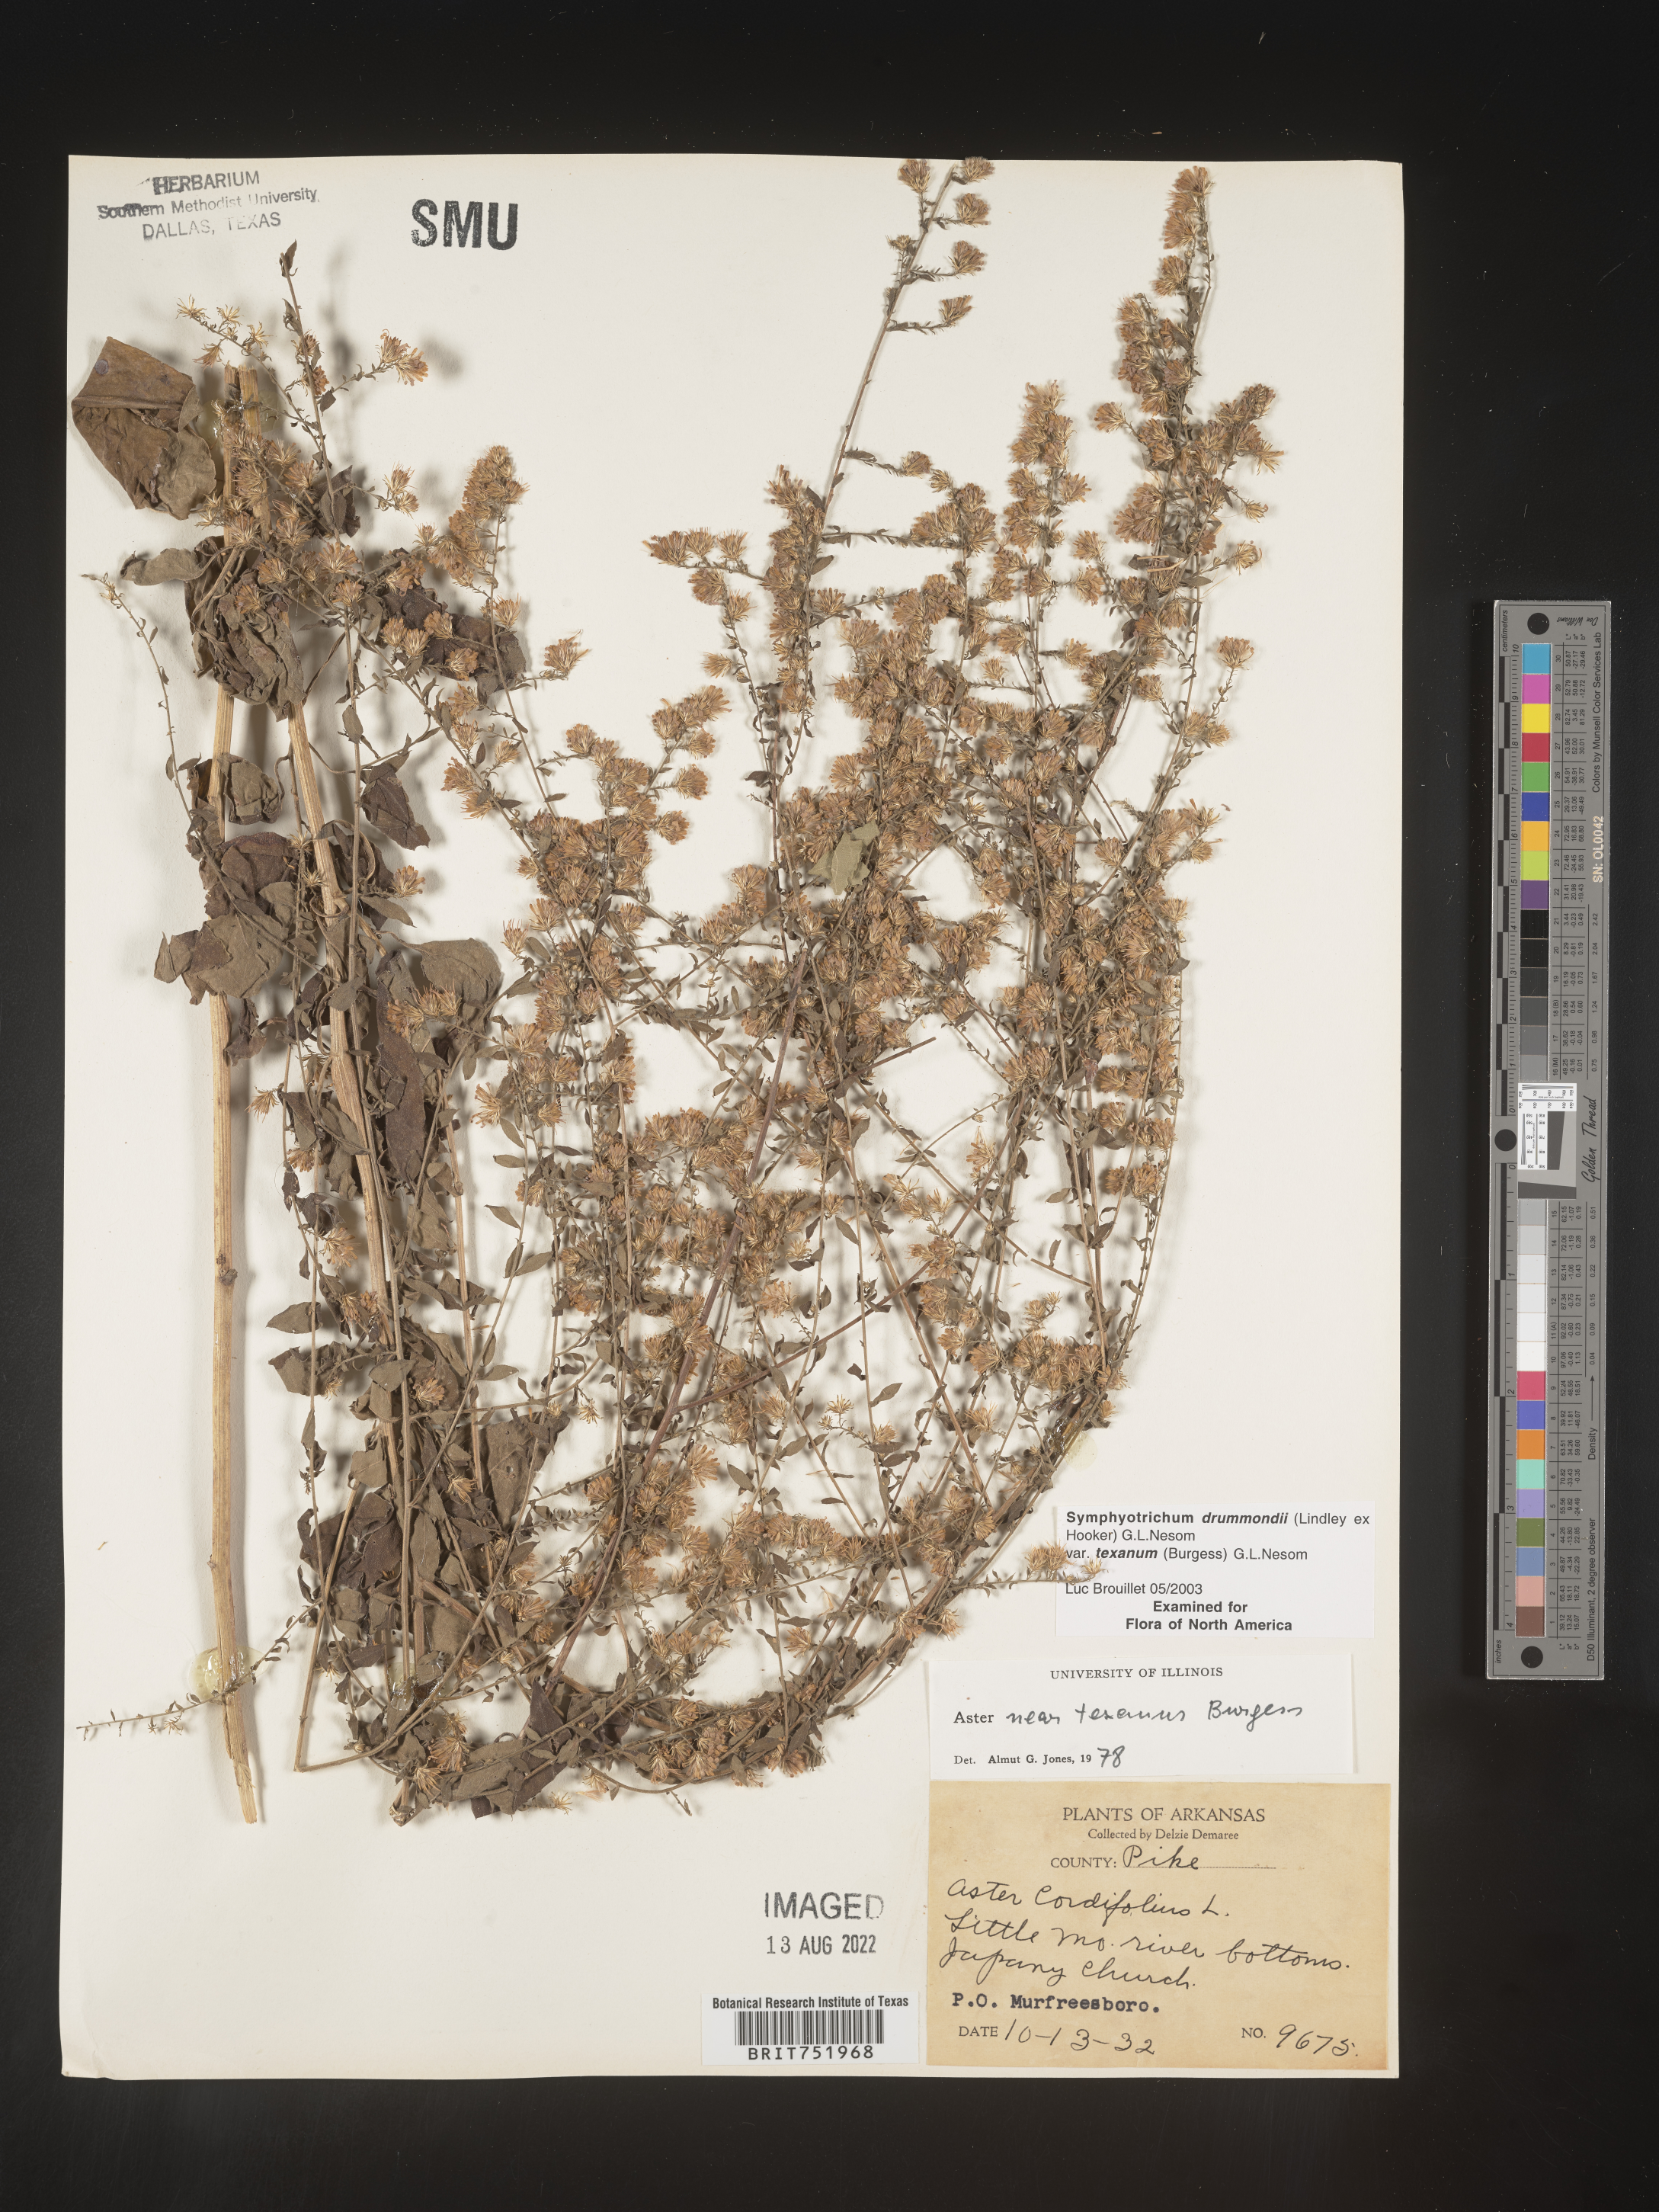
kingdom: Plantae
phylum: Tracheophyta
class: Magnoliopsida
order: Asterales
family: Asteraceae
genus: Symphyotrichum
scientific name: Symphyotrichum drummondii
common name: Drummond's aster
